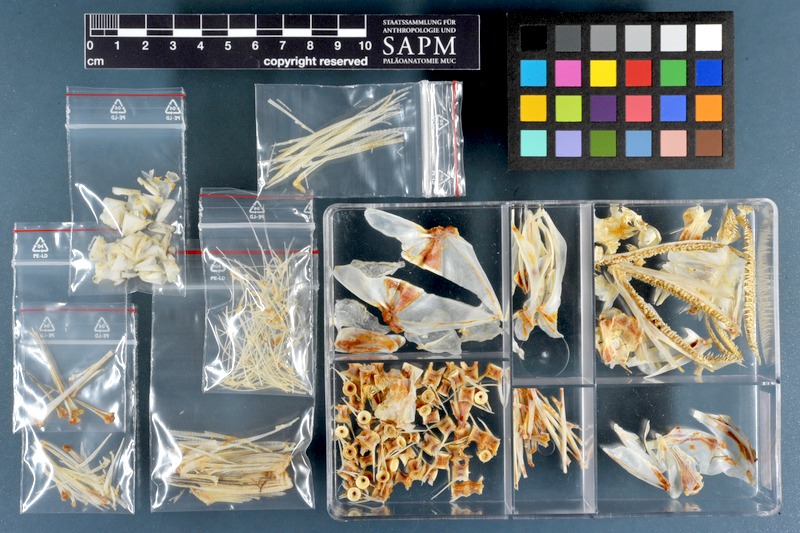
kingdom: Animalia
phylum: Chordata
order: Aulopiformes
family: Synodontidae
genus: Saurida
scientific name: Saurida tumbil
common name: Greater lizardfish
